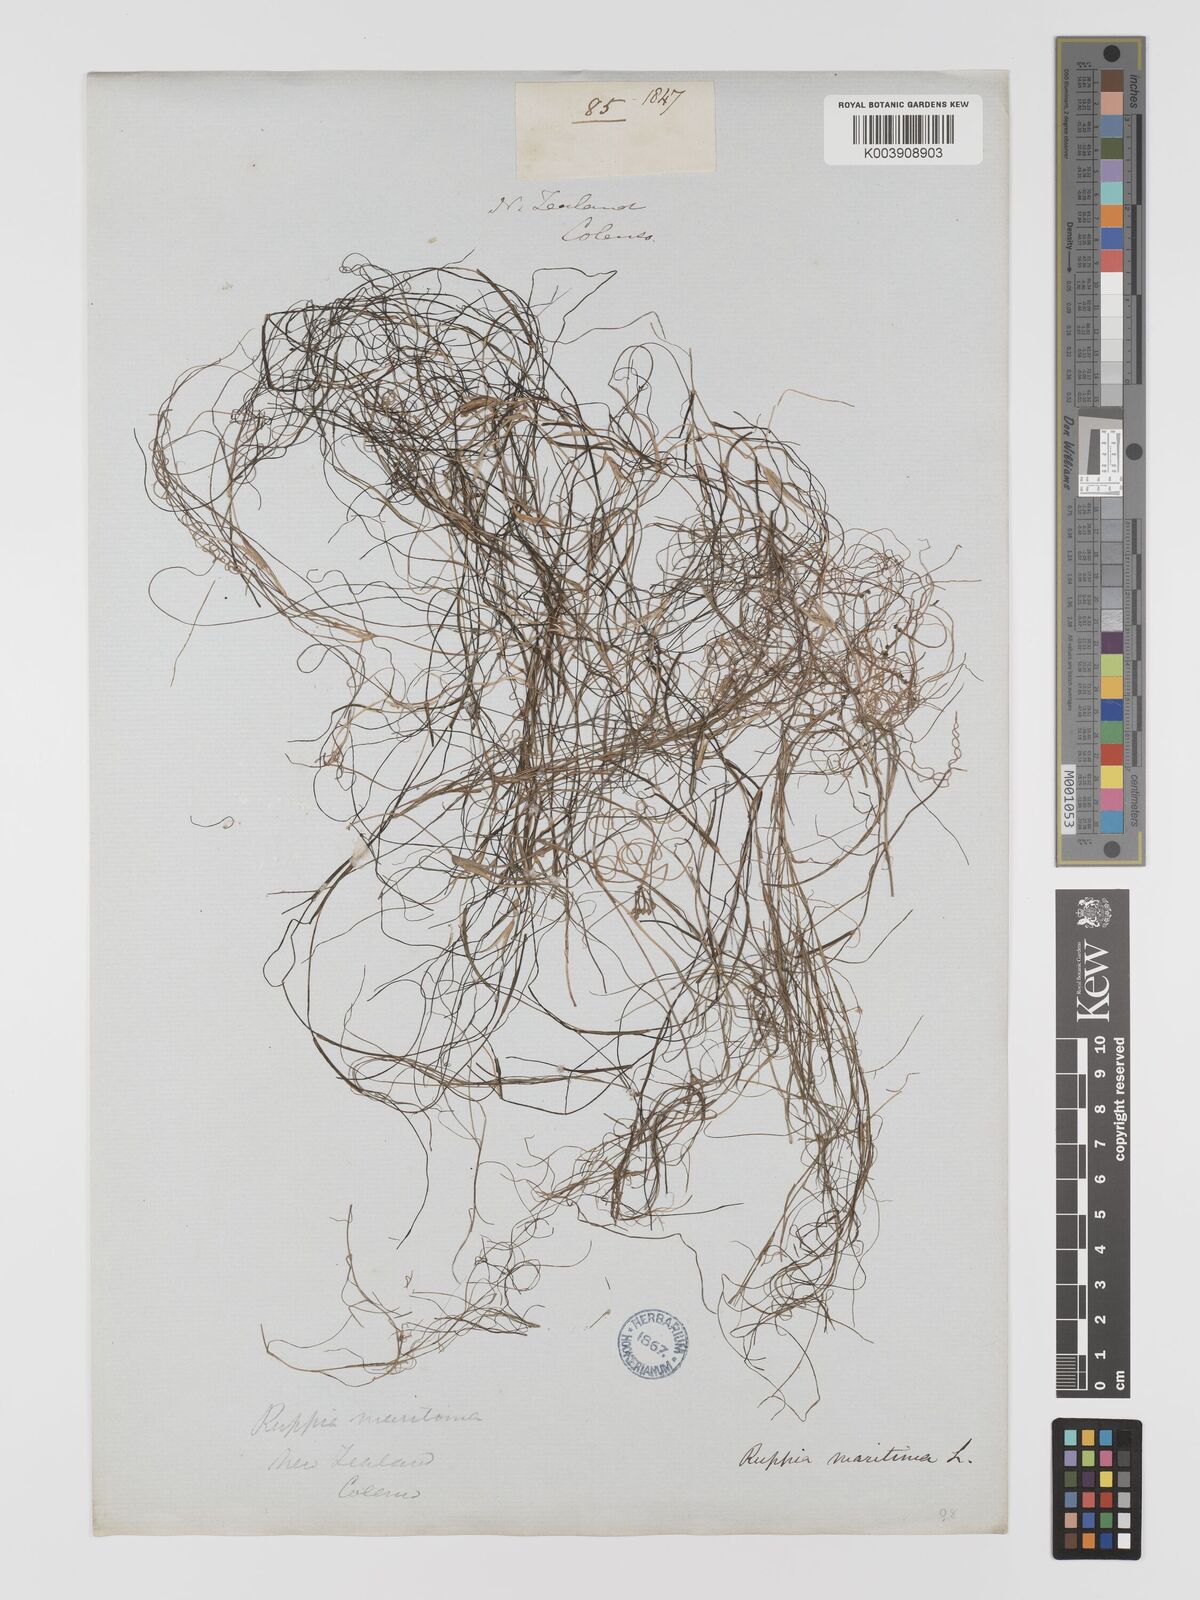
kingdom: Plantae
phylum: Tracheophyta
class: Liliopsida
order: Alismatales
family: Ruppiaceae
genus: Ruppia
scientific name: Ruppia maritima
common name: Beaked tasselweed
